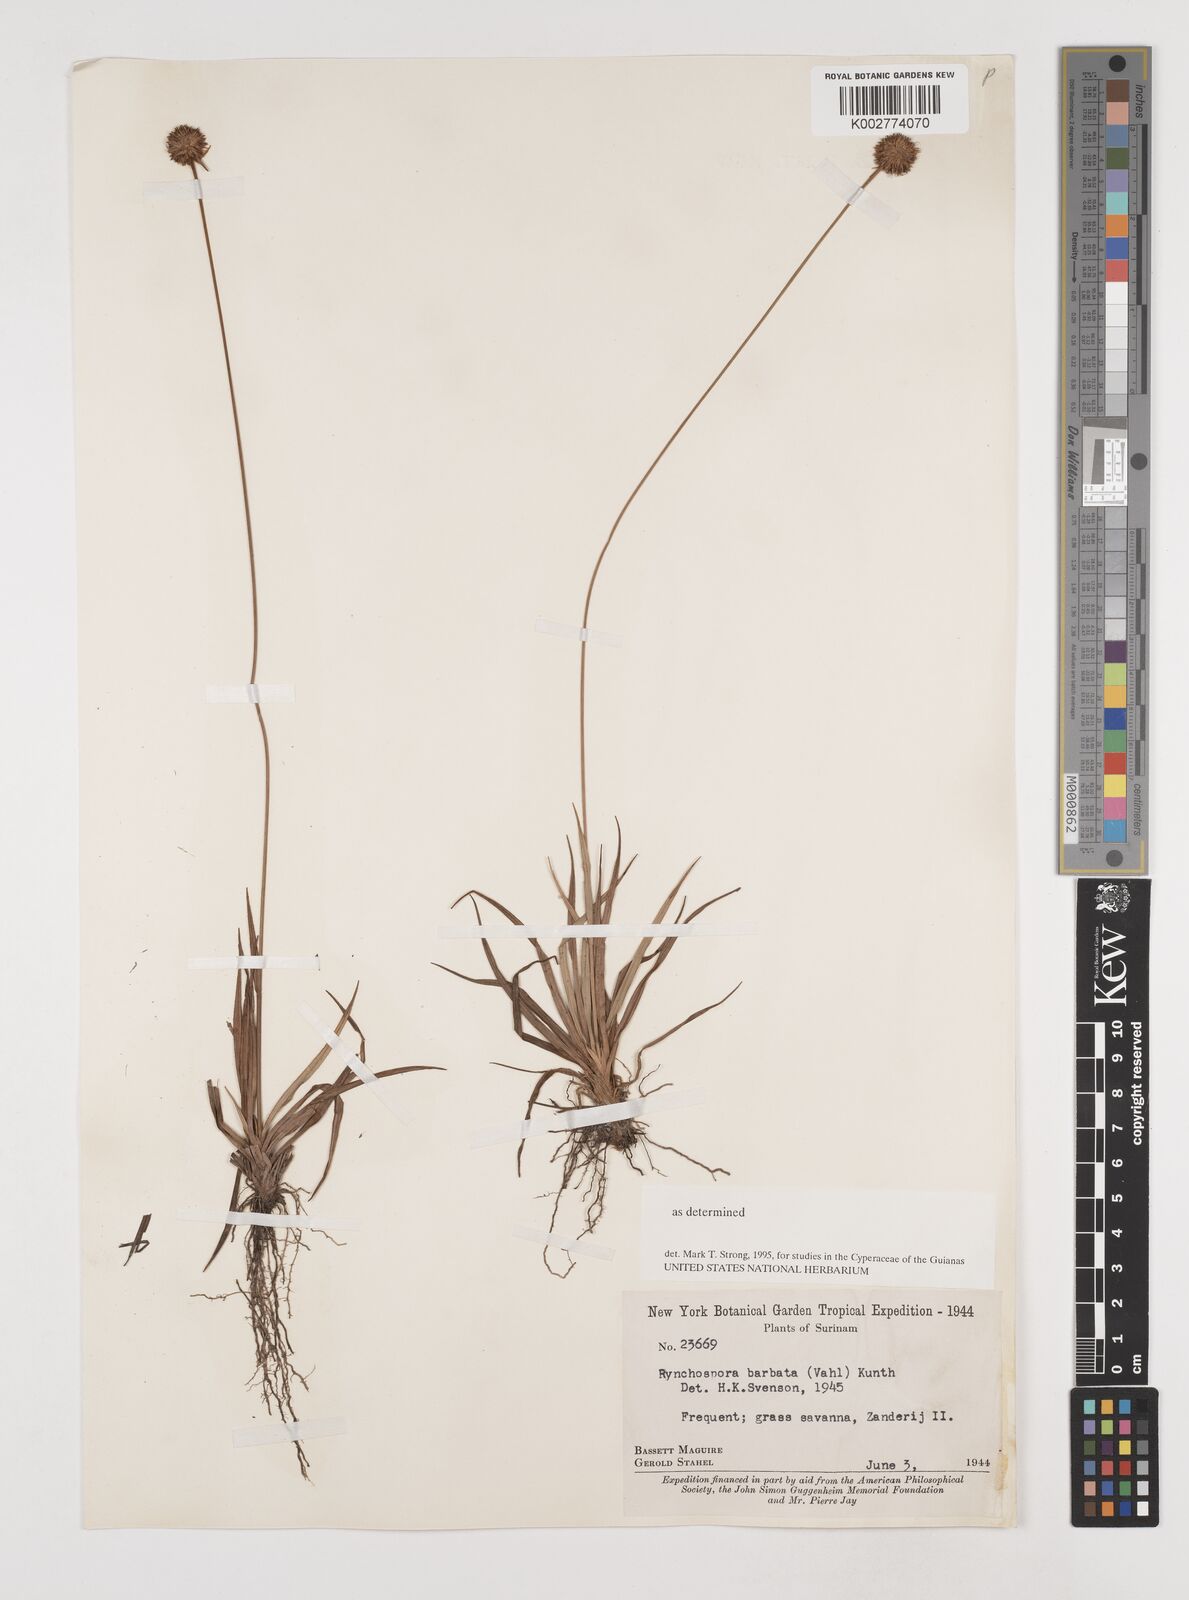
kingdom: Plantae
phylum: Tracheophyta
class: Liliopsida
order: Poales
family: Cyperaceae
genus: Rhynchospora
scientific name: Rhynchospora barbata
